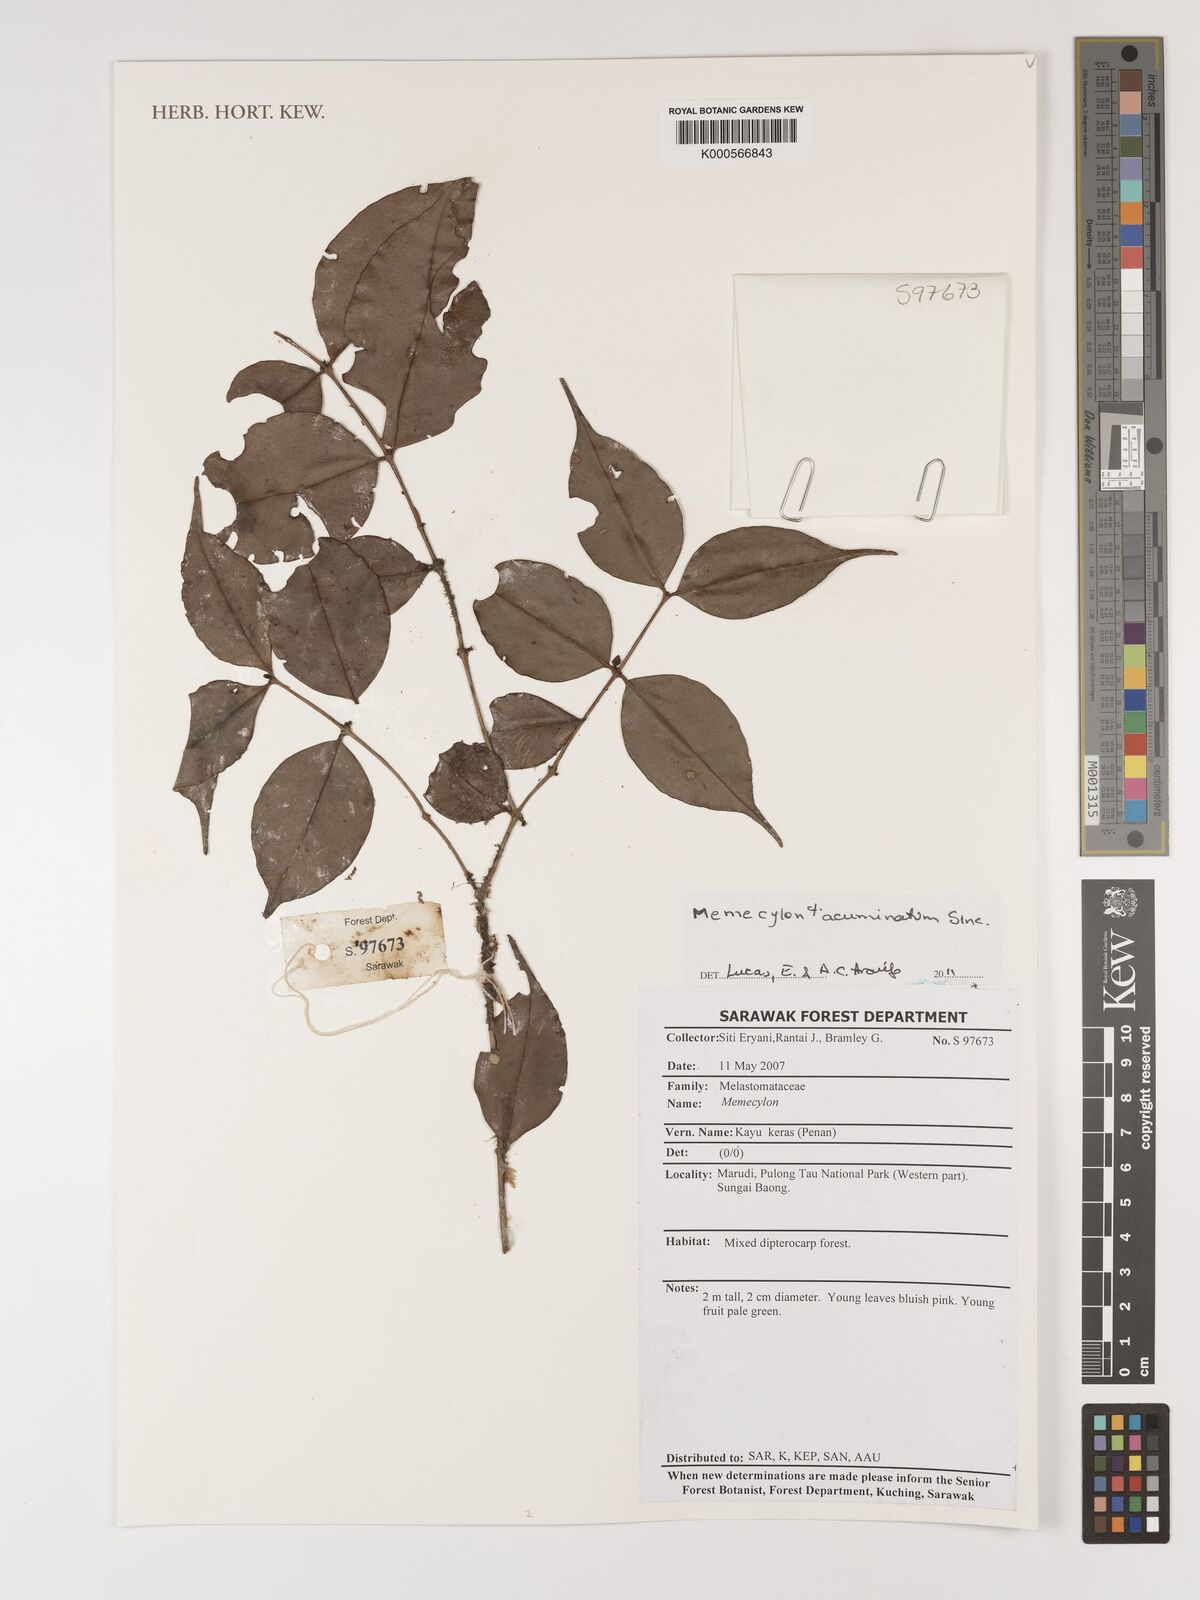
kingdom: Plantae
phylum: Tracheophyta
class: Magnoliopsida
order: Myrtales
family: Melastomataceae
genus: Memecylon
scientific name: Memecylon
